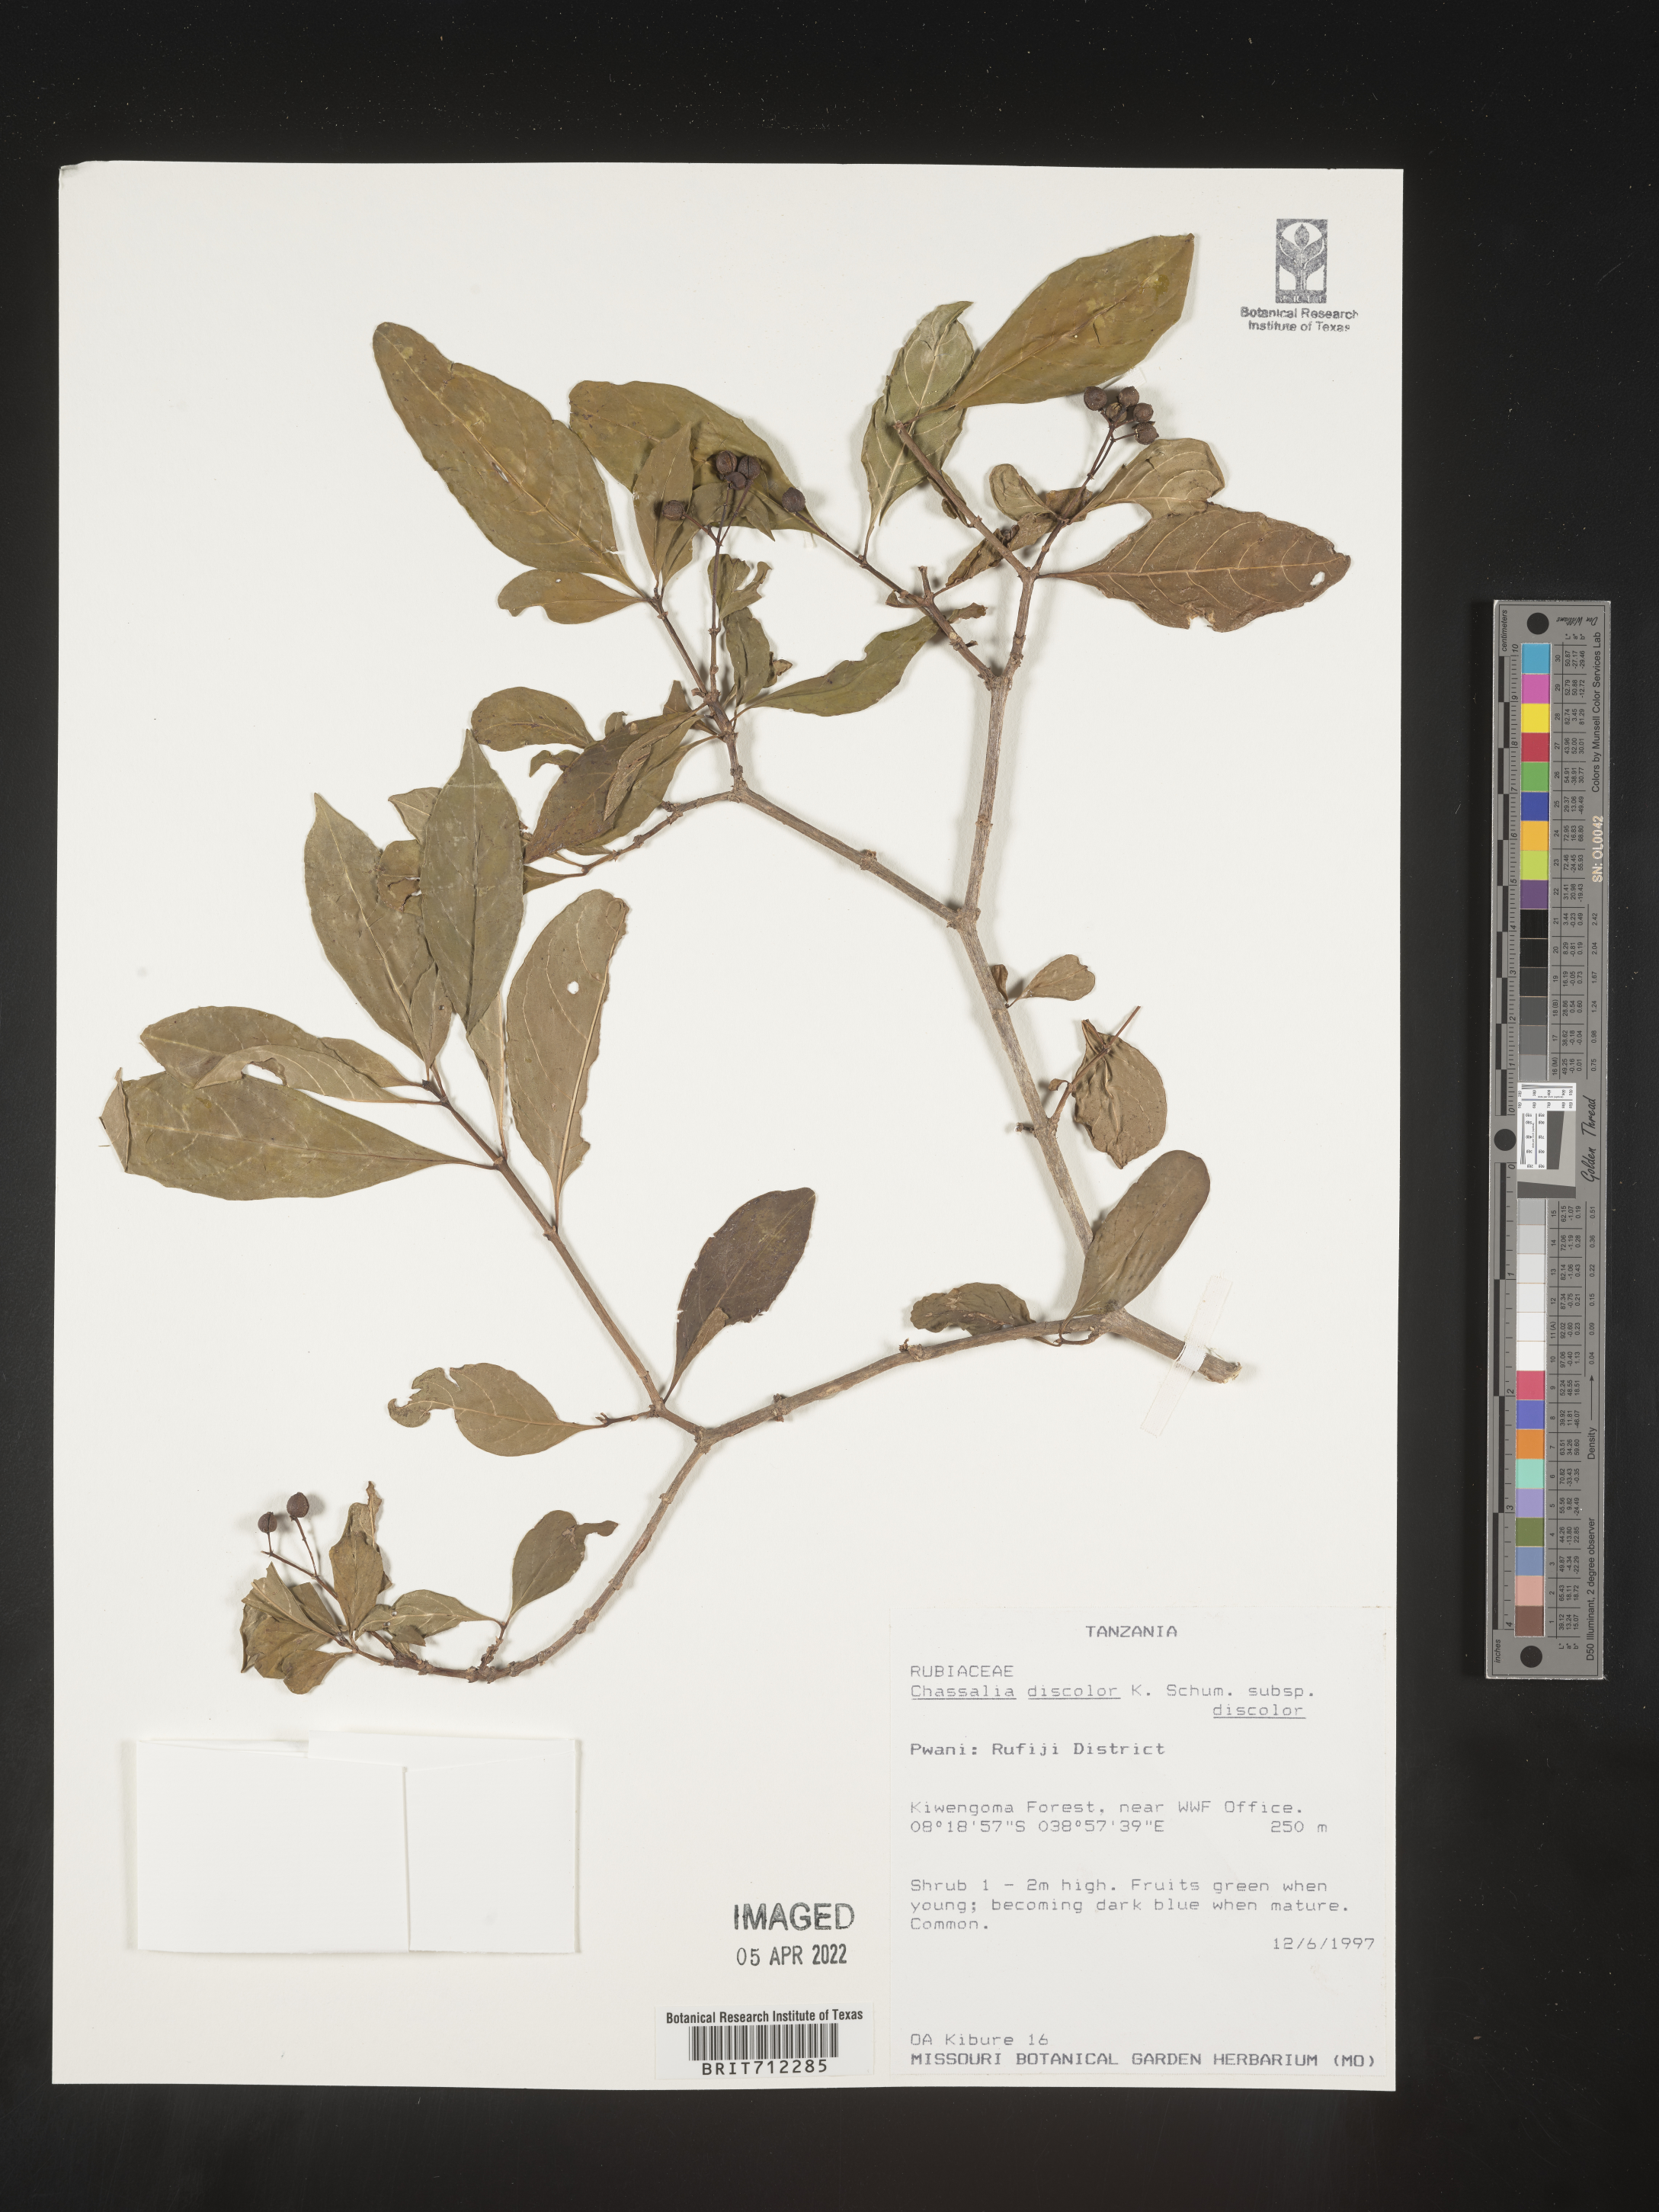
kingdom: Plantae
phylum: Tracheophyta
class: Magnoliopsida
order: Gentianales
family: Rubiaceae
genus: Chassalia
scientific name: Chassalia
